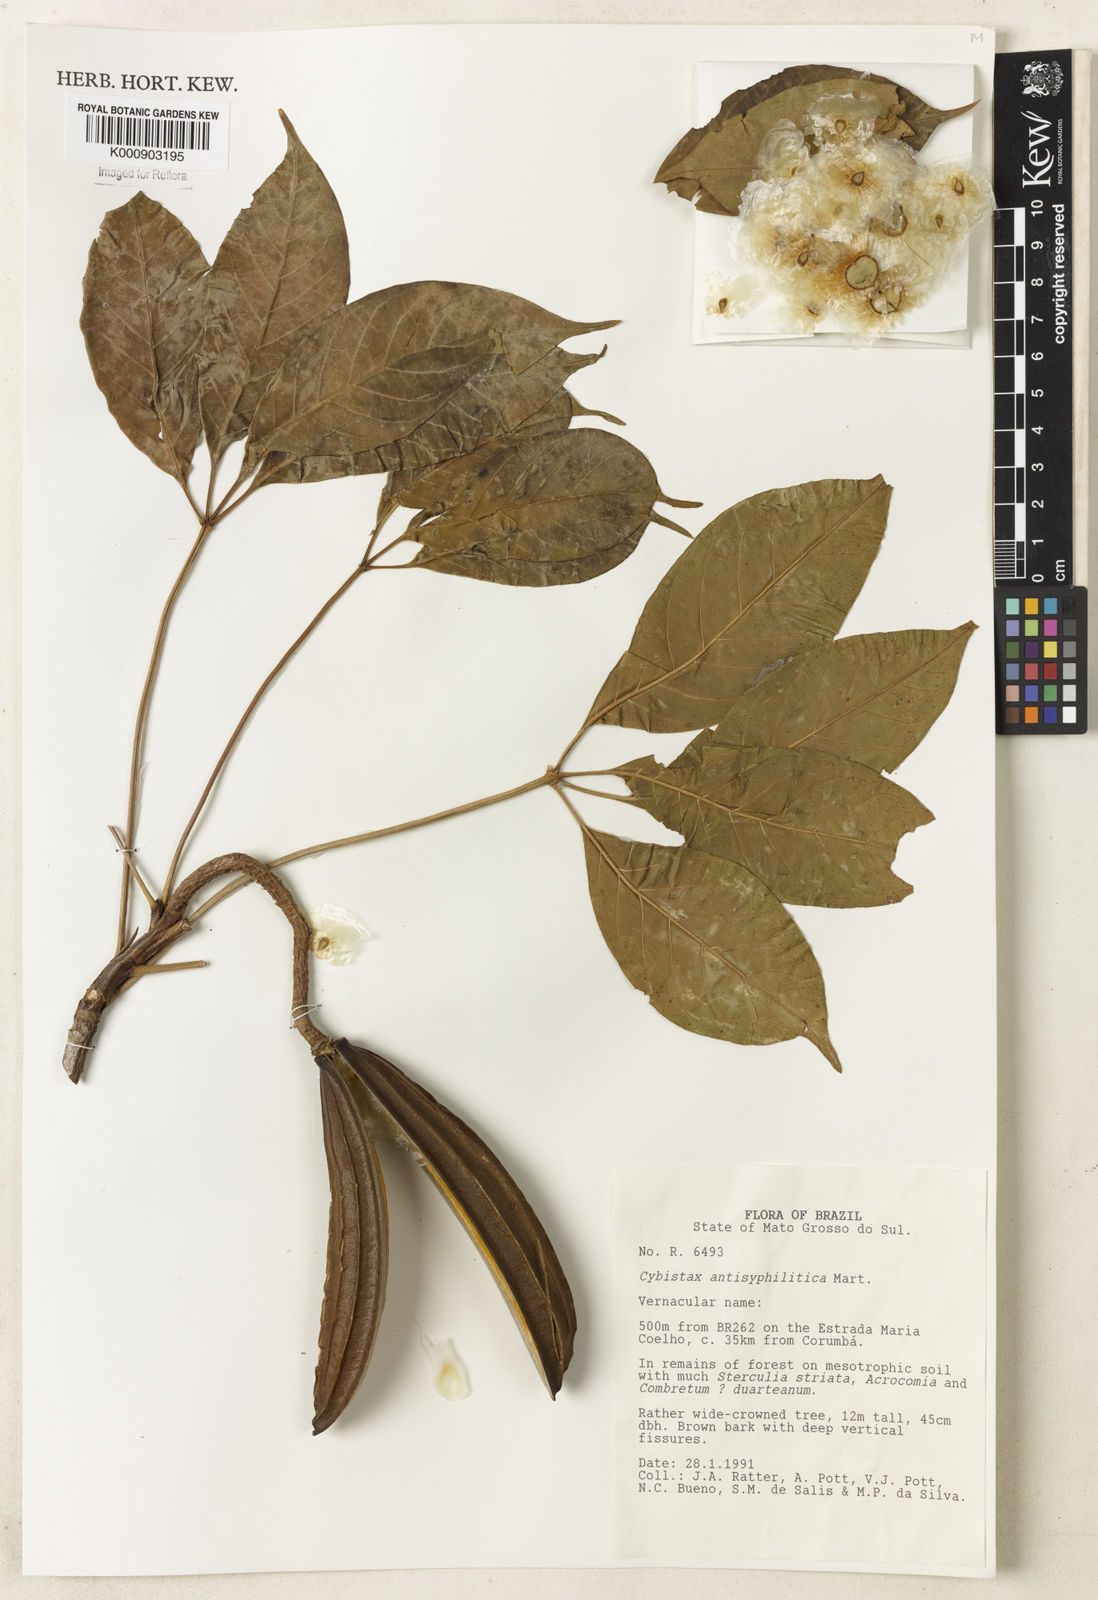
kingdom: Plantae
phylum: Tracheophyta
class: Magnoliopsida
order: Lamiales
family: Bignoniaceae
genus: Cybistax
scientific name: Cybistax antisyphilitica
